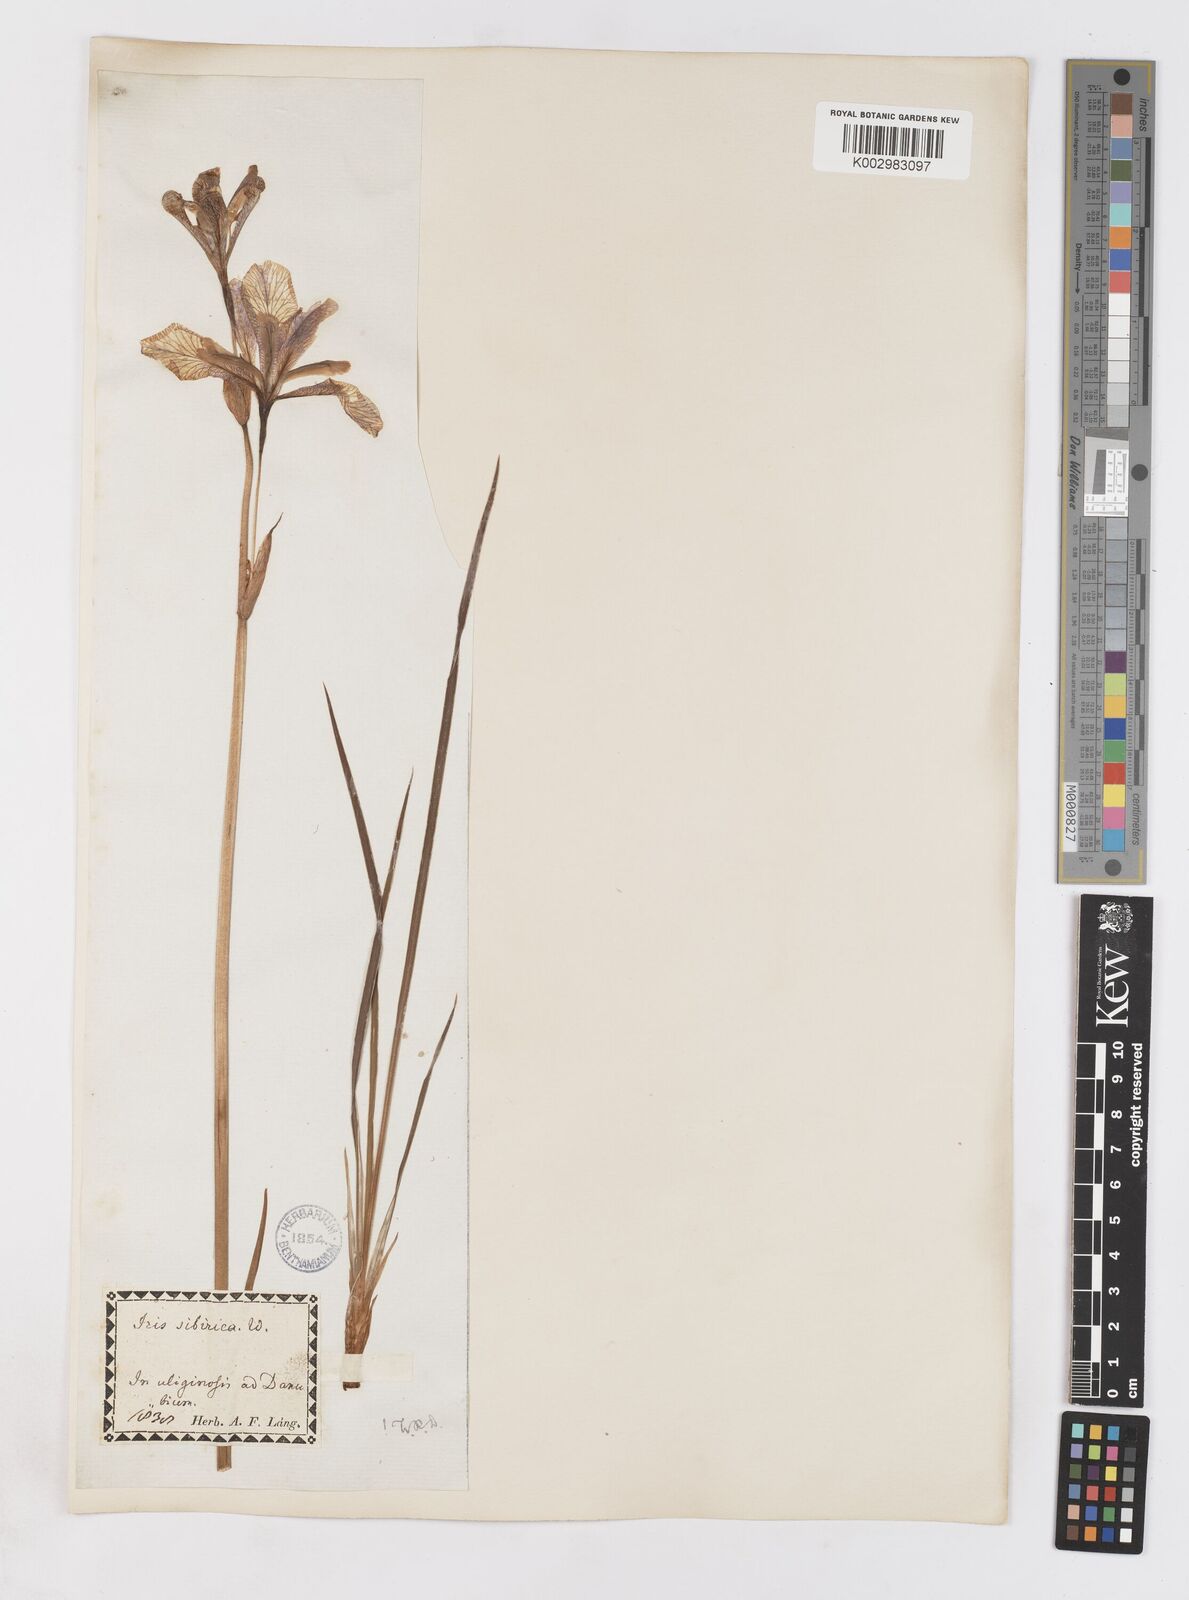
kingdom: Plantae
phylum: Tracheophyta
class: Liliopsida
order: Asparagales
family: Iridaceae
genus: Iris
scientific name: Iris sibirica
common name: Siberian iris
